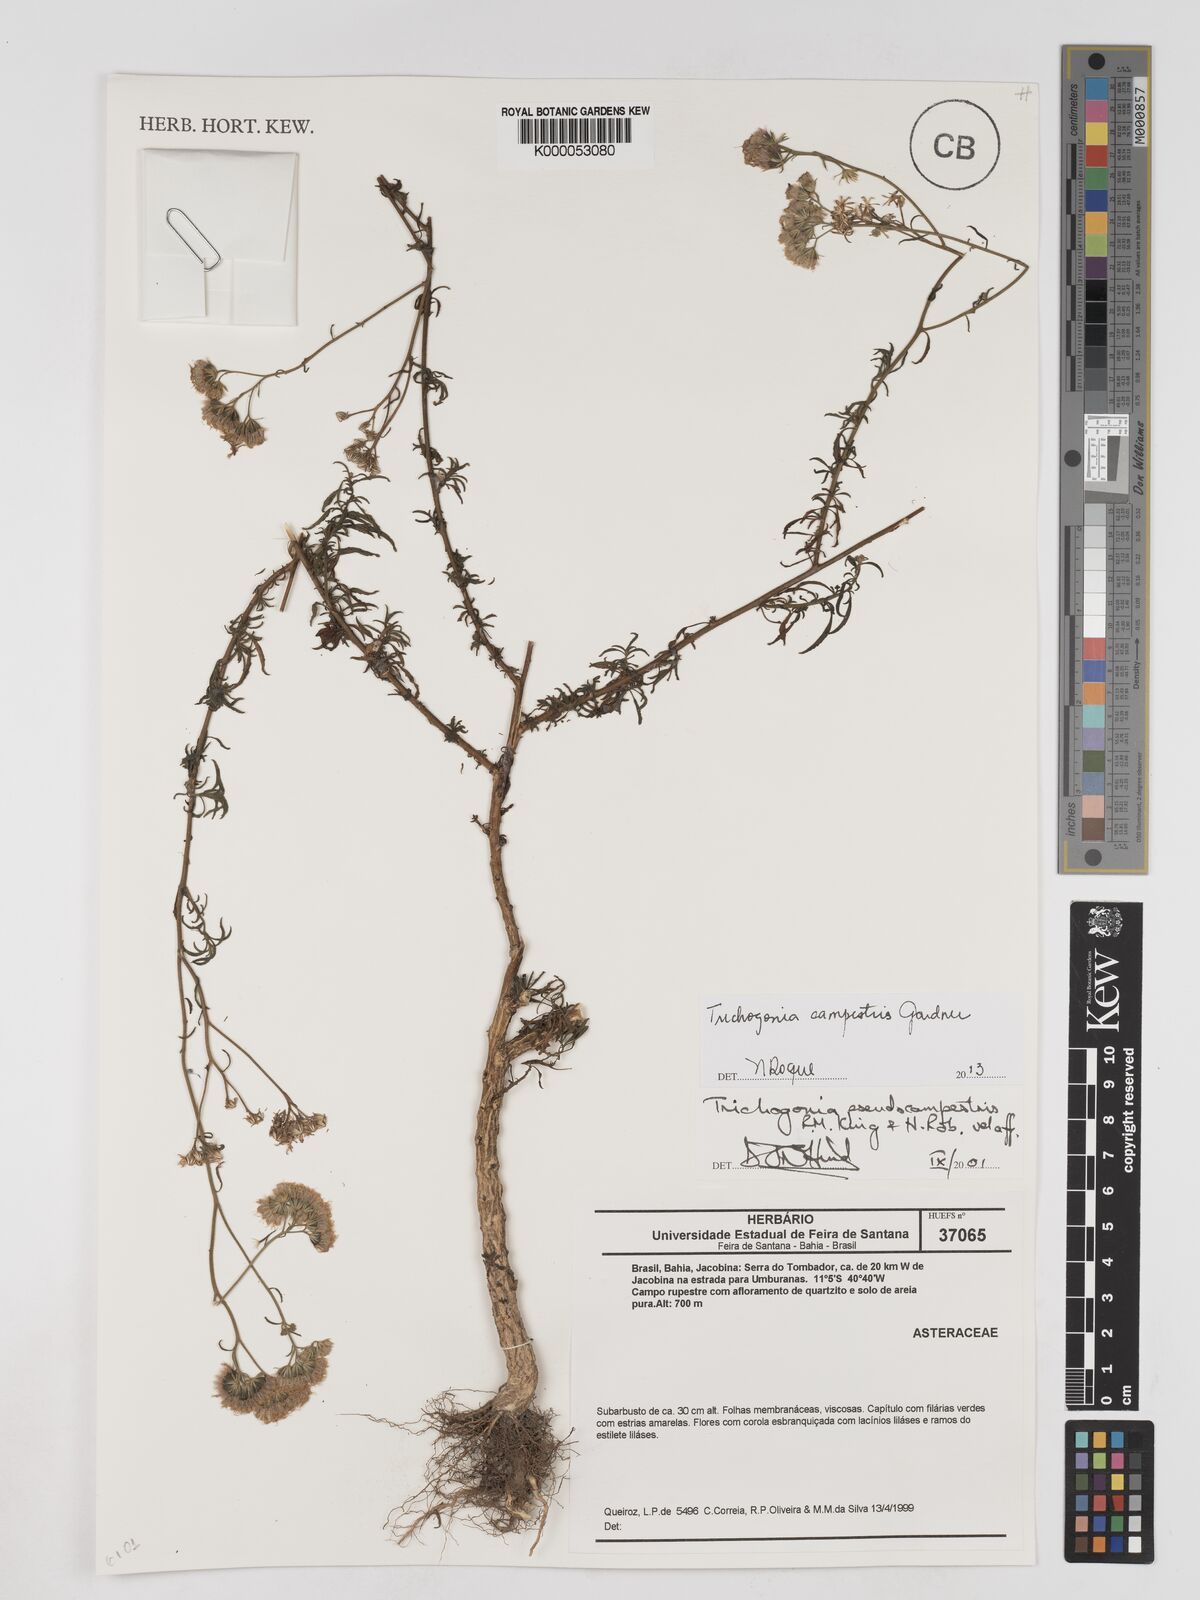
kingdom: Plantae
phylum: Tracheophyta
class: Magnoliopsida
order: Asterales
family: Asteraceae
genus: Trichogonia
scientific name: Trichogonia campestris
